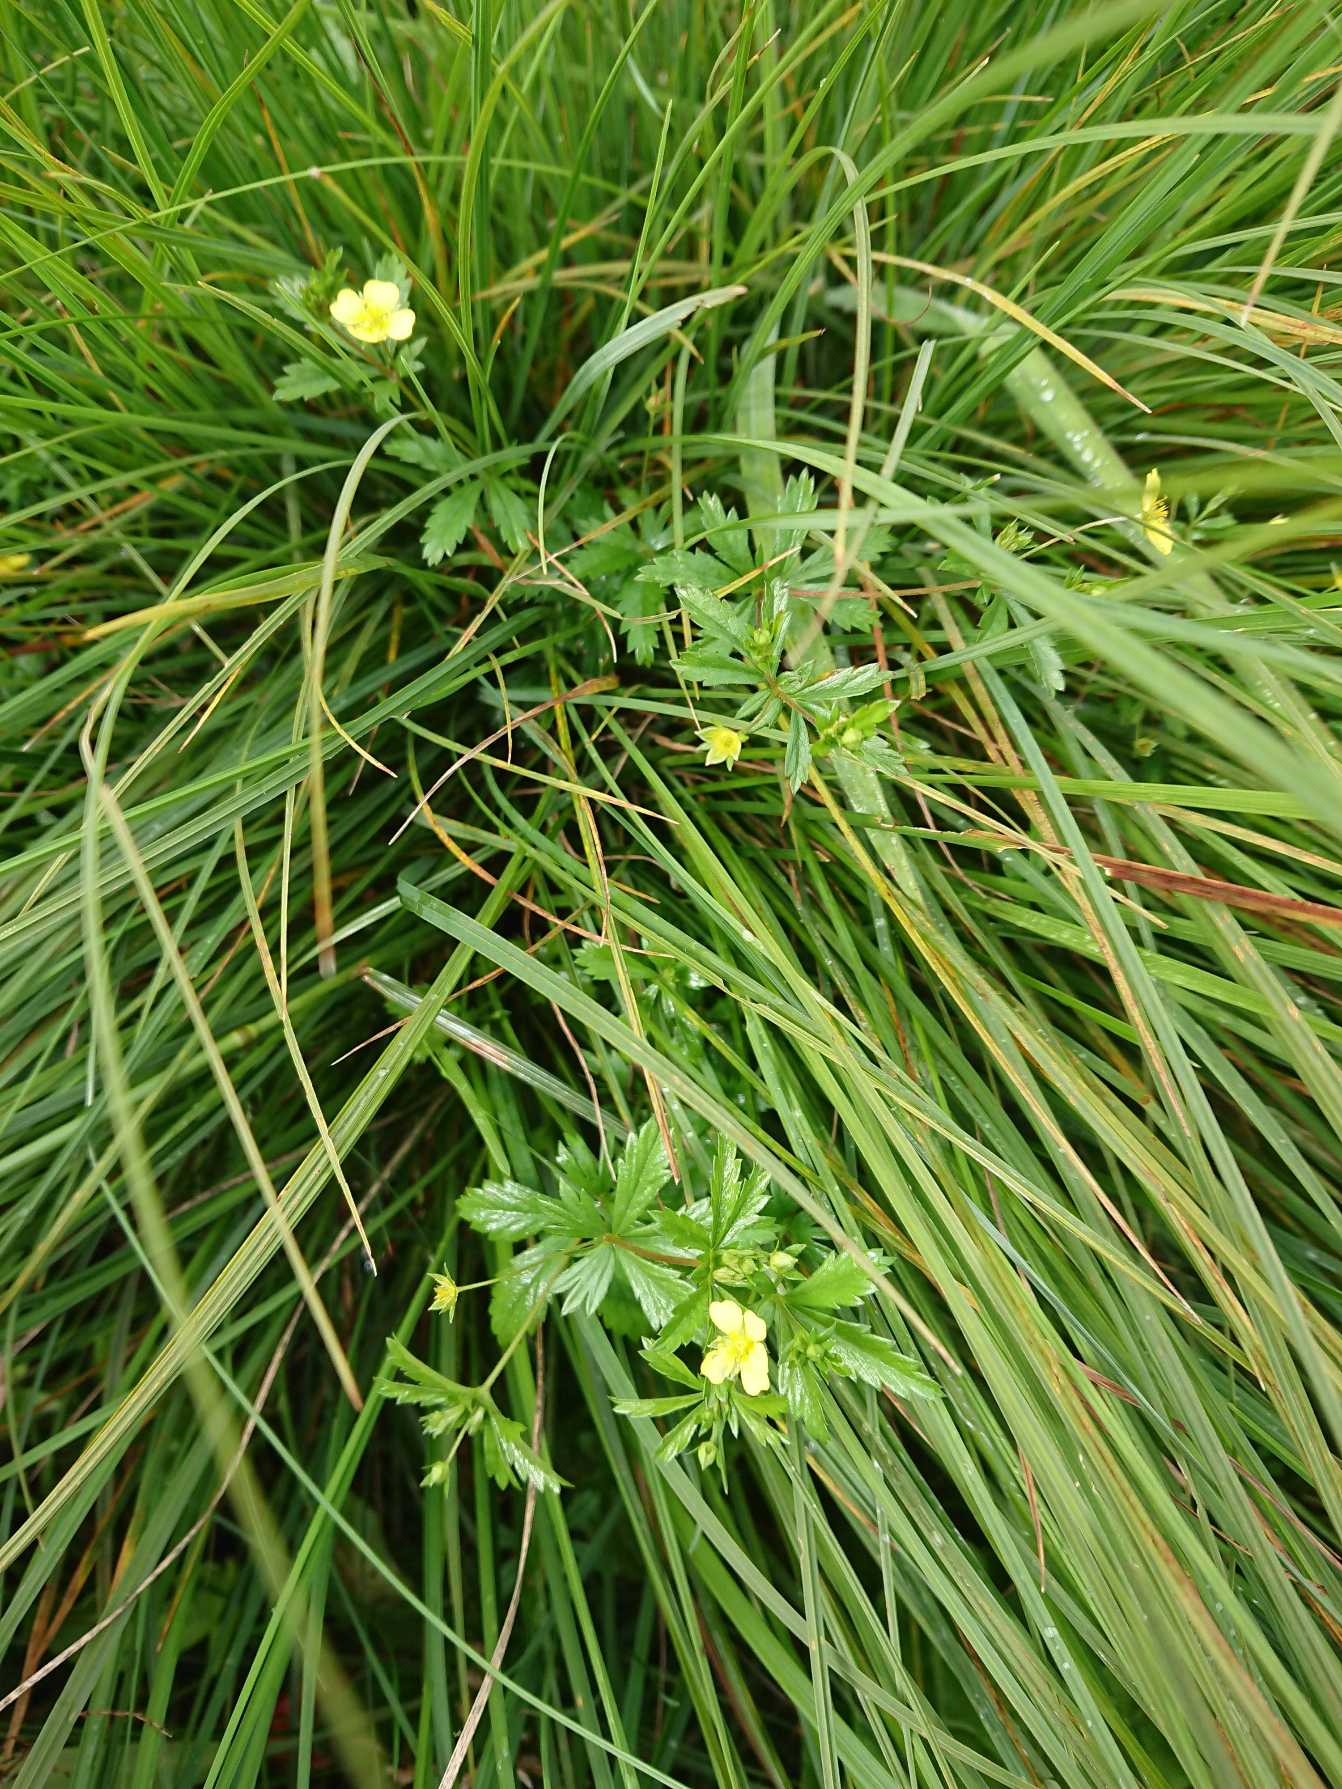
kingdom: Plantae
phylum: Tracheophyta
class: Magnoliopsida
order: Rosales
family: Rosaceae
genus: Potentilla
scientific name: Potentilla erecta
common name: Tormentil
